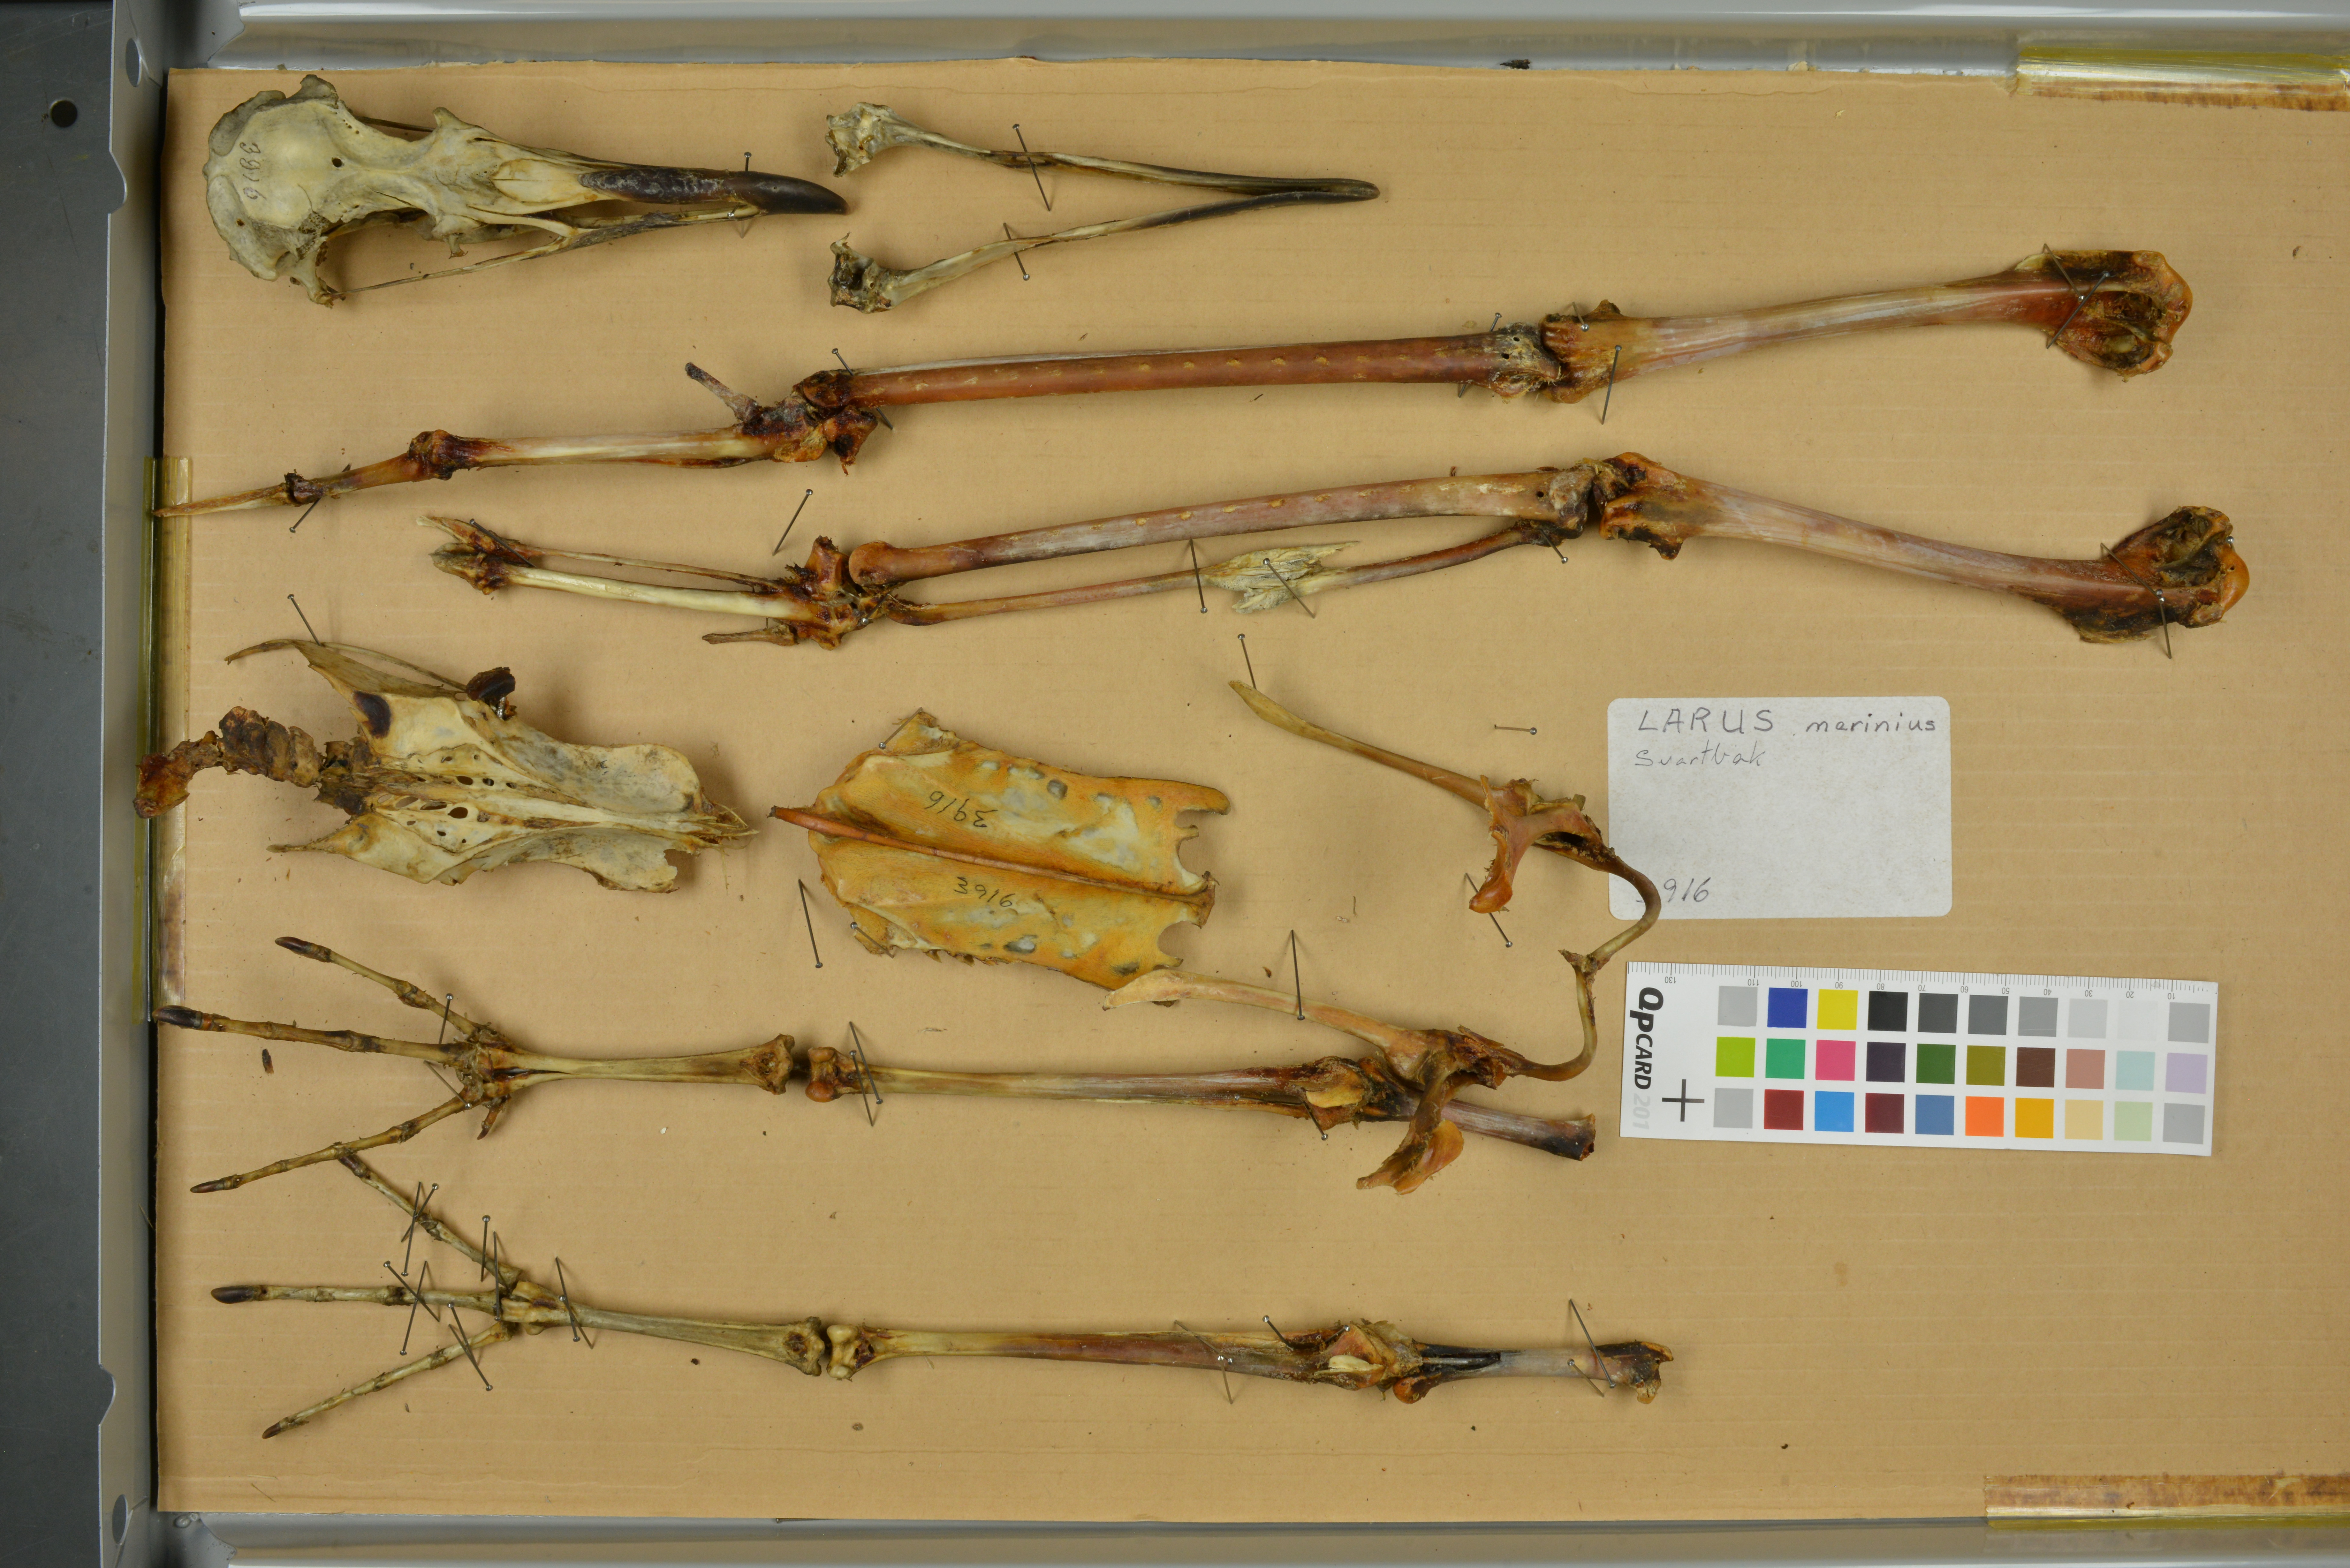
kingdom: Animalia
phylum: Chordata
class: Aves
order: Charadriiformes
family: Laridae
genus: Larus
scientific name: Larus marinus
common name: Great black-backed gull
